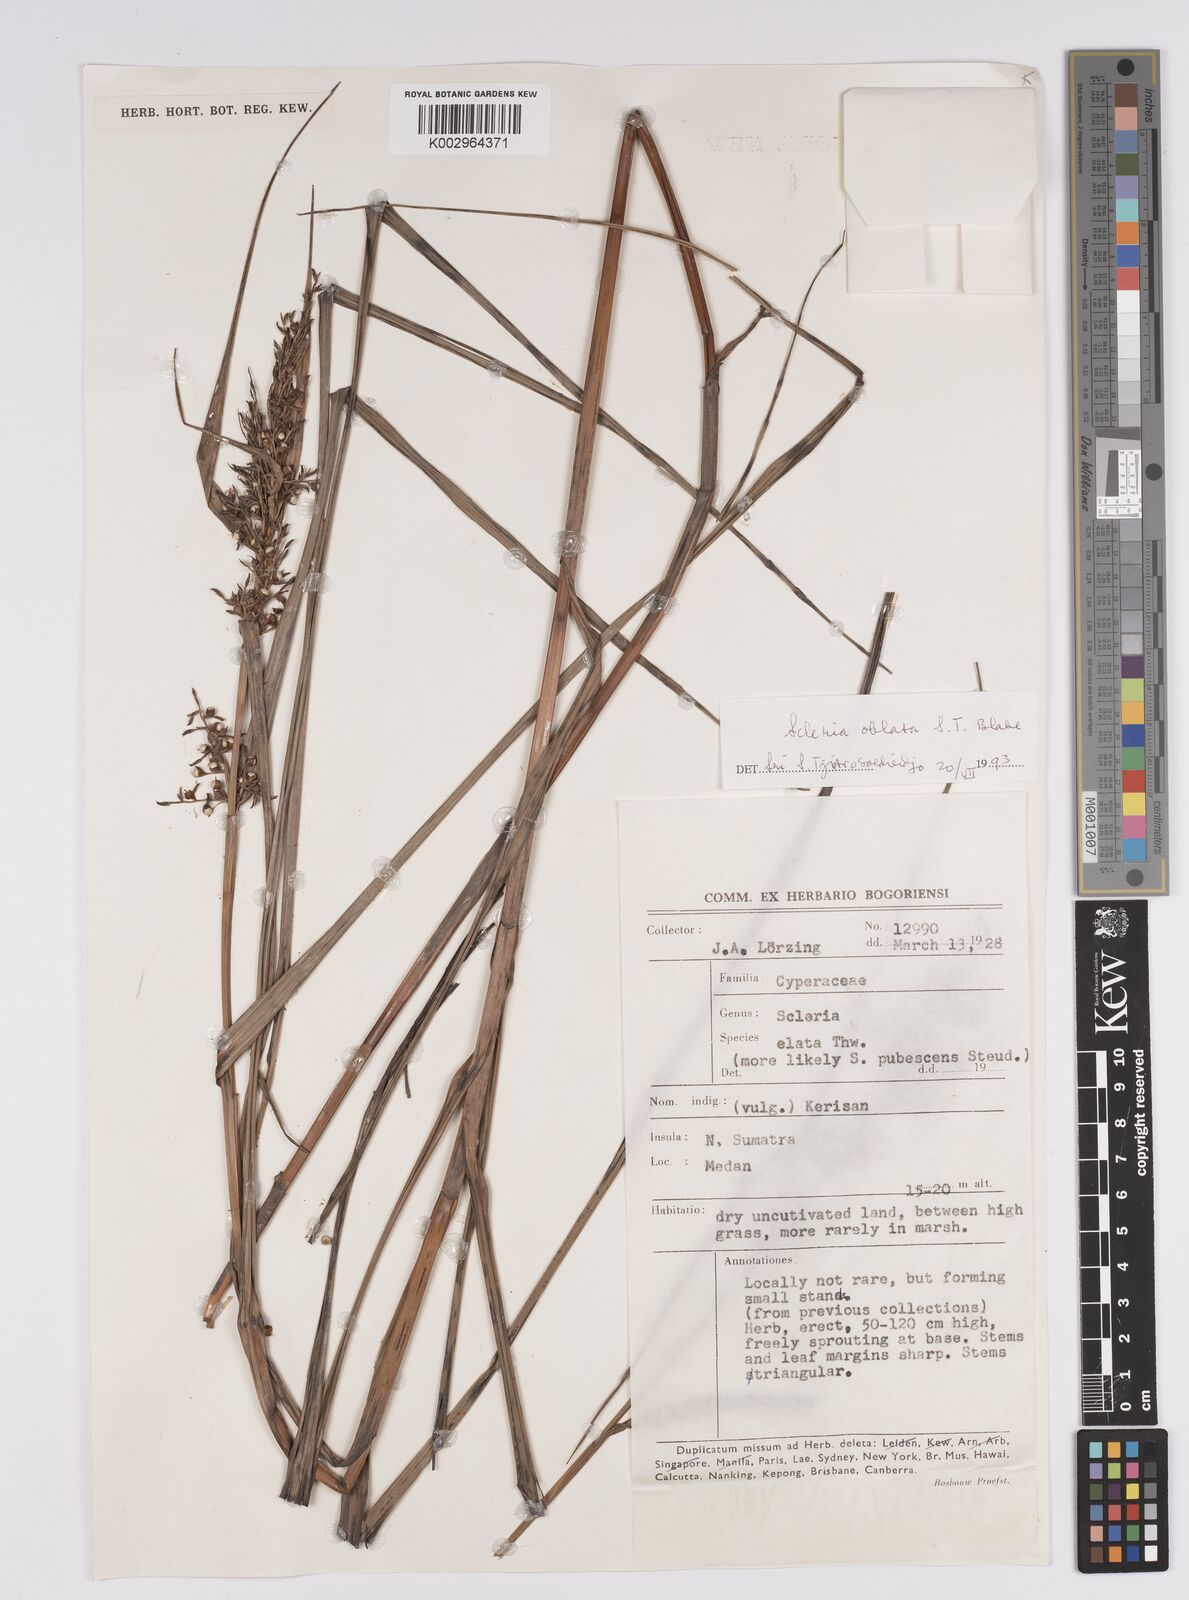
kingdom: Plantae
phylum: Tracheophyta
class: Liliopsida
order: Poales
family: Cyperaceae
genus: Scleria
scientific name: Scleria oblata
